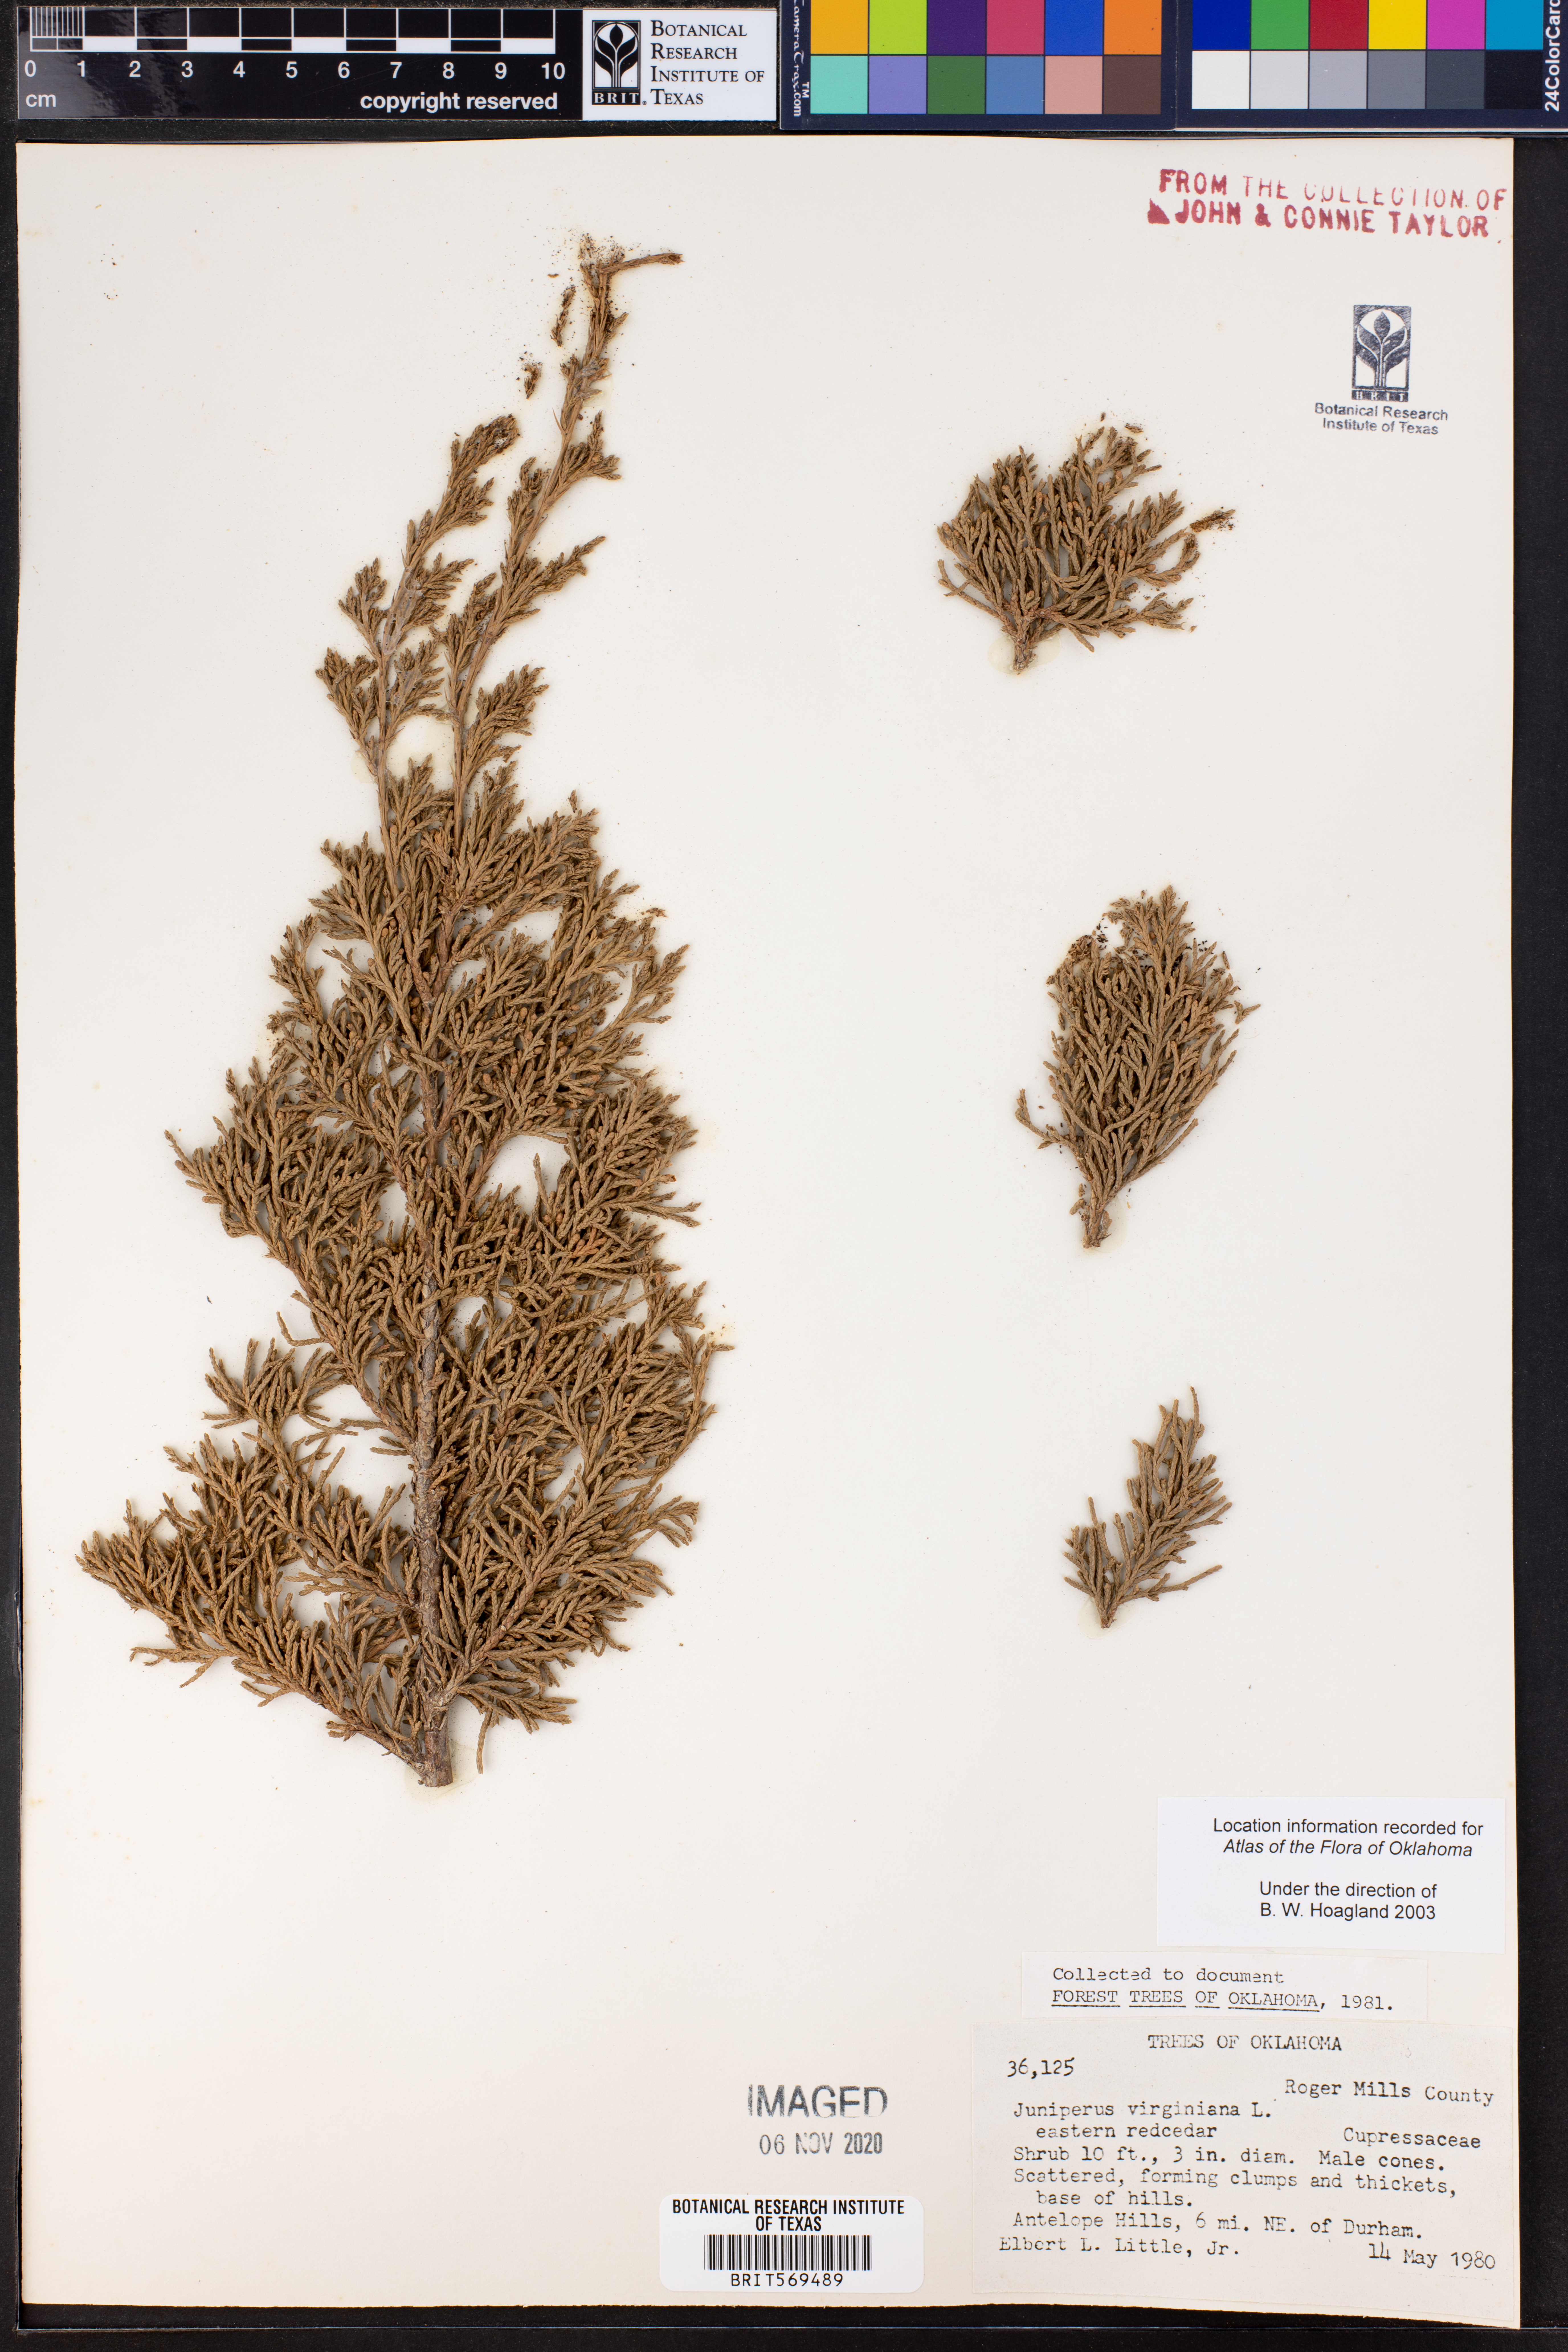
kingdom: Plantae
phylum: Tracheophyta
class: Pinopsida
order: Pinales
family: Cupressaceae
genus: Juniperus
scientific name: Juniperus virginiana
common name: Red juniper
